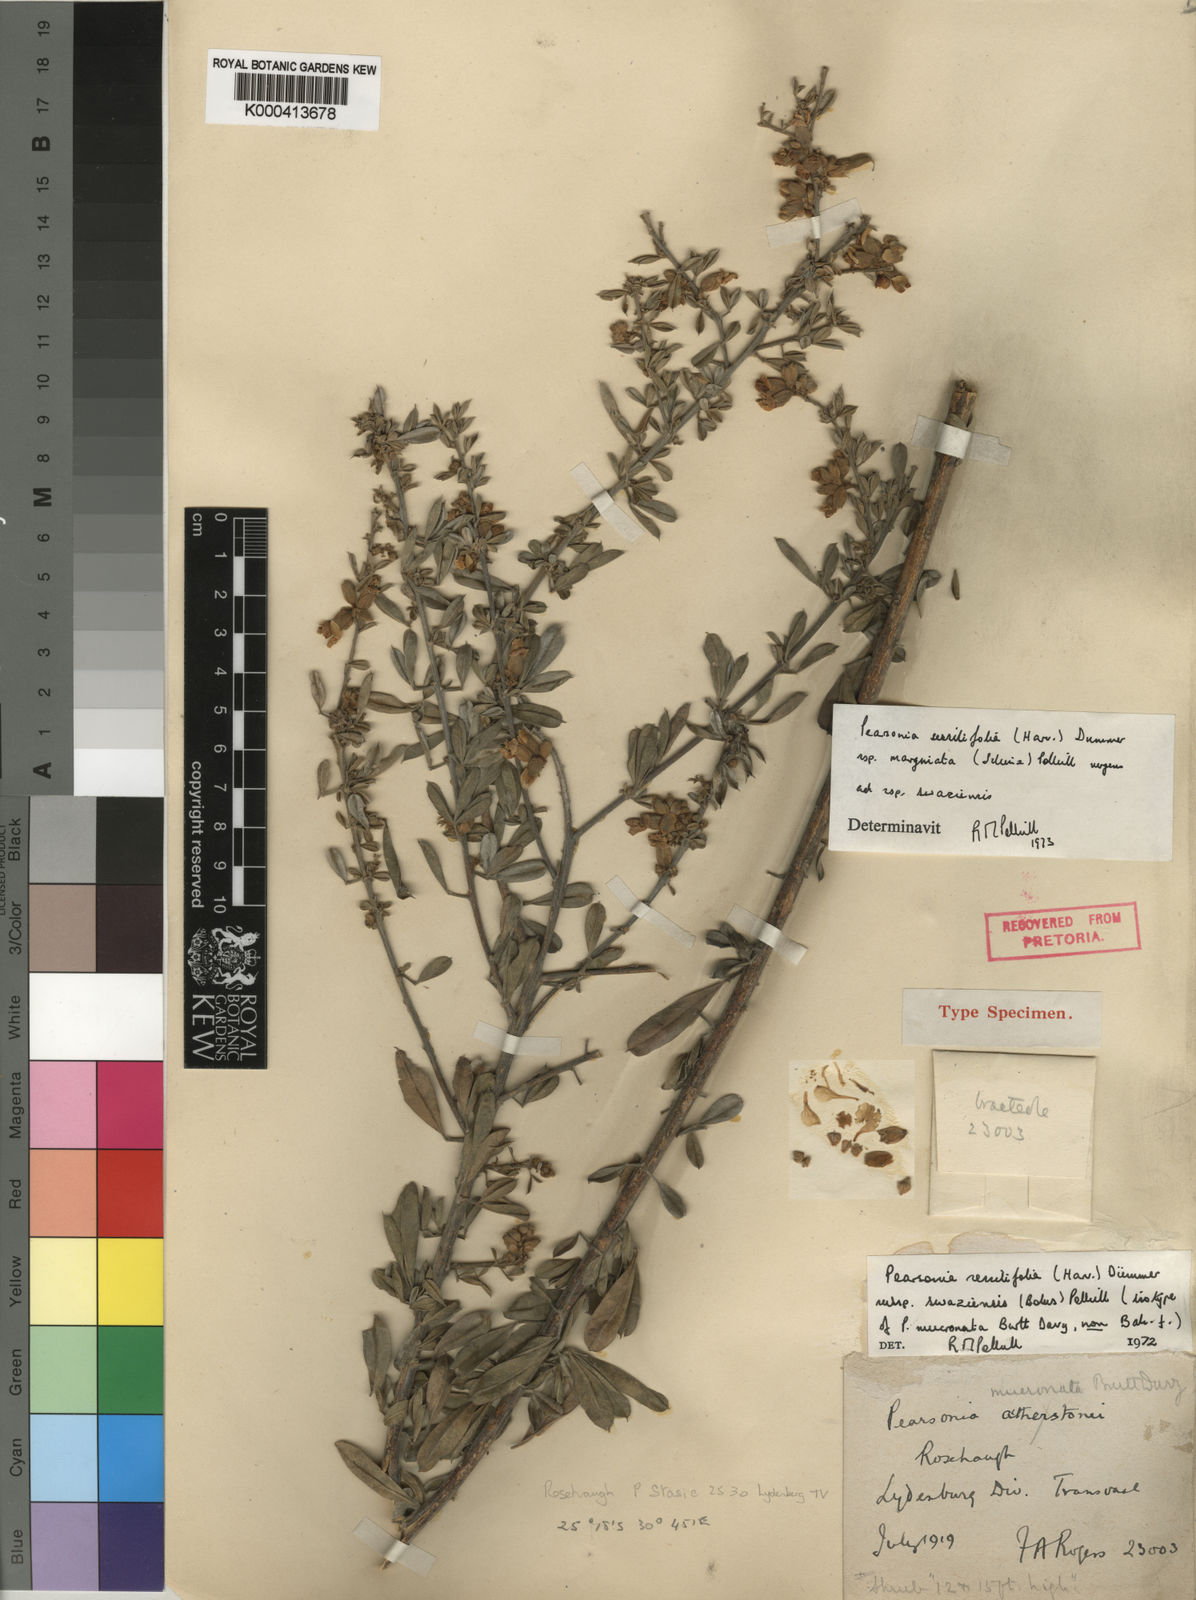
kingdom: Plantae
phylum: Tracheophyta
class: Magnoliopsida
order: Fabales
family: Fabaceae
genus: Pearsonia
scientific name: Pearsonia sessilifolia
